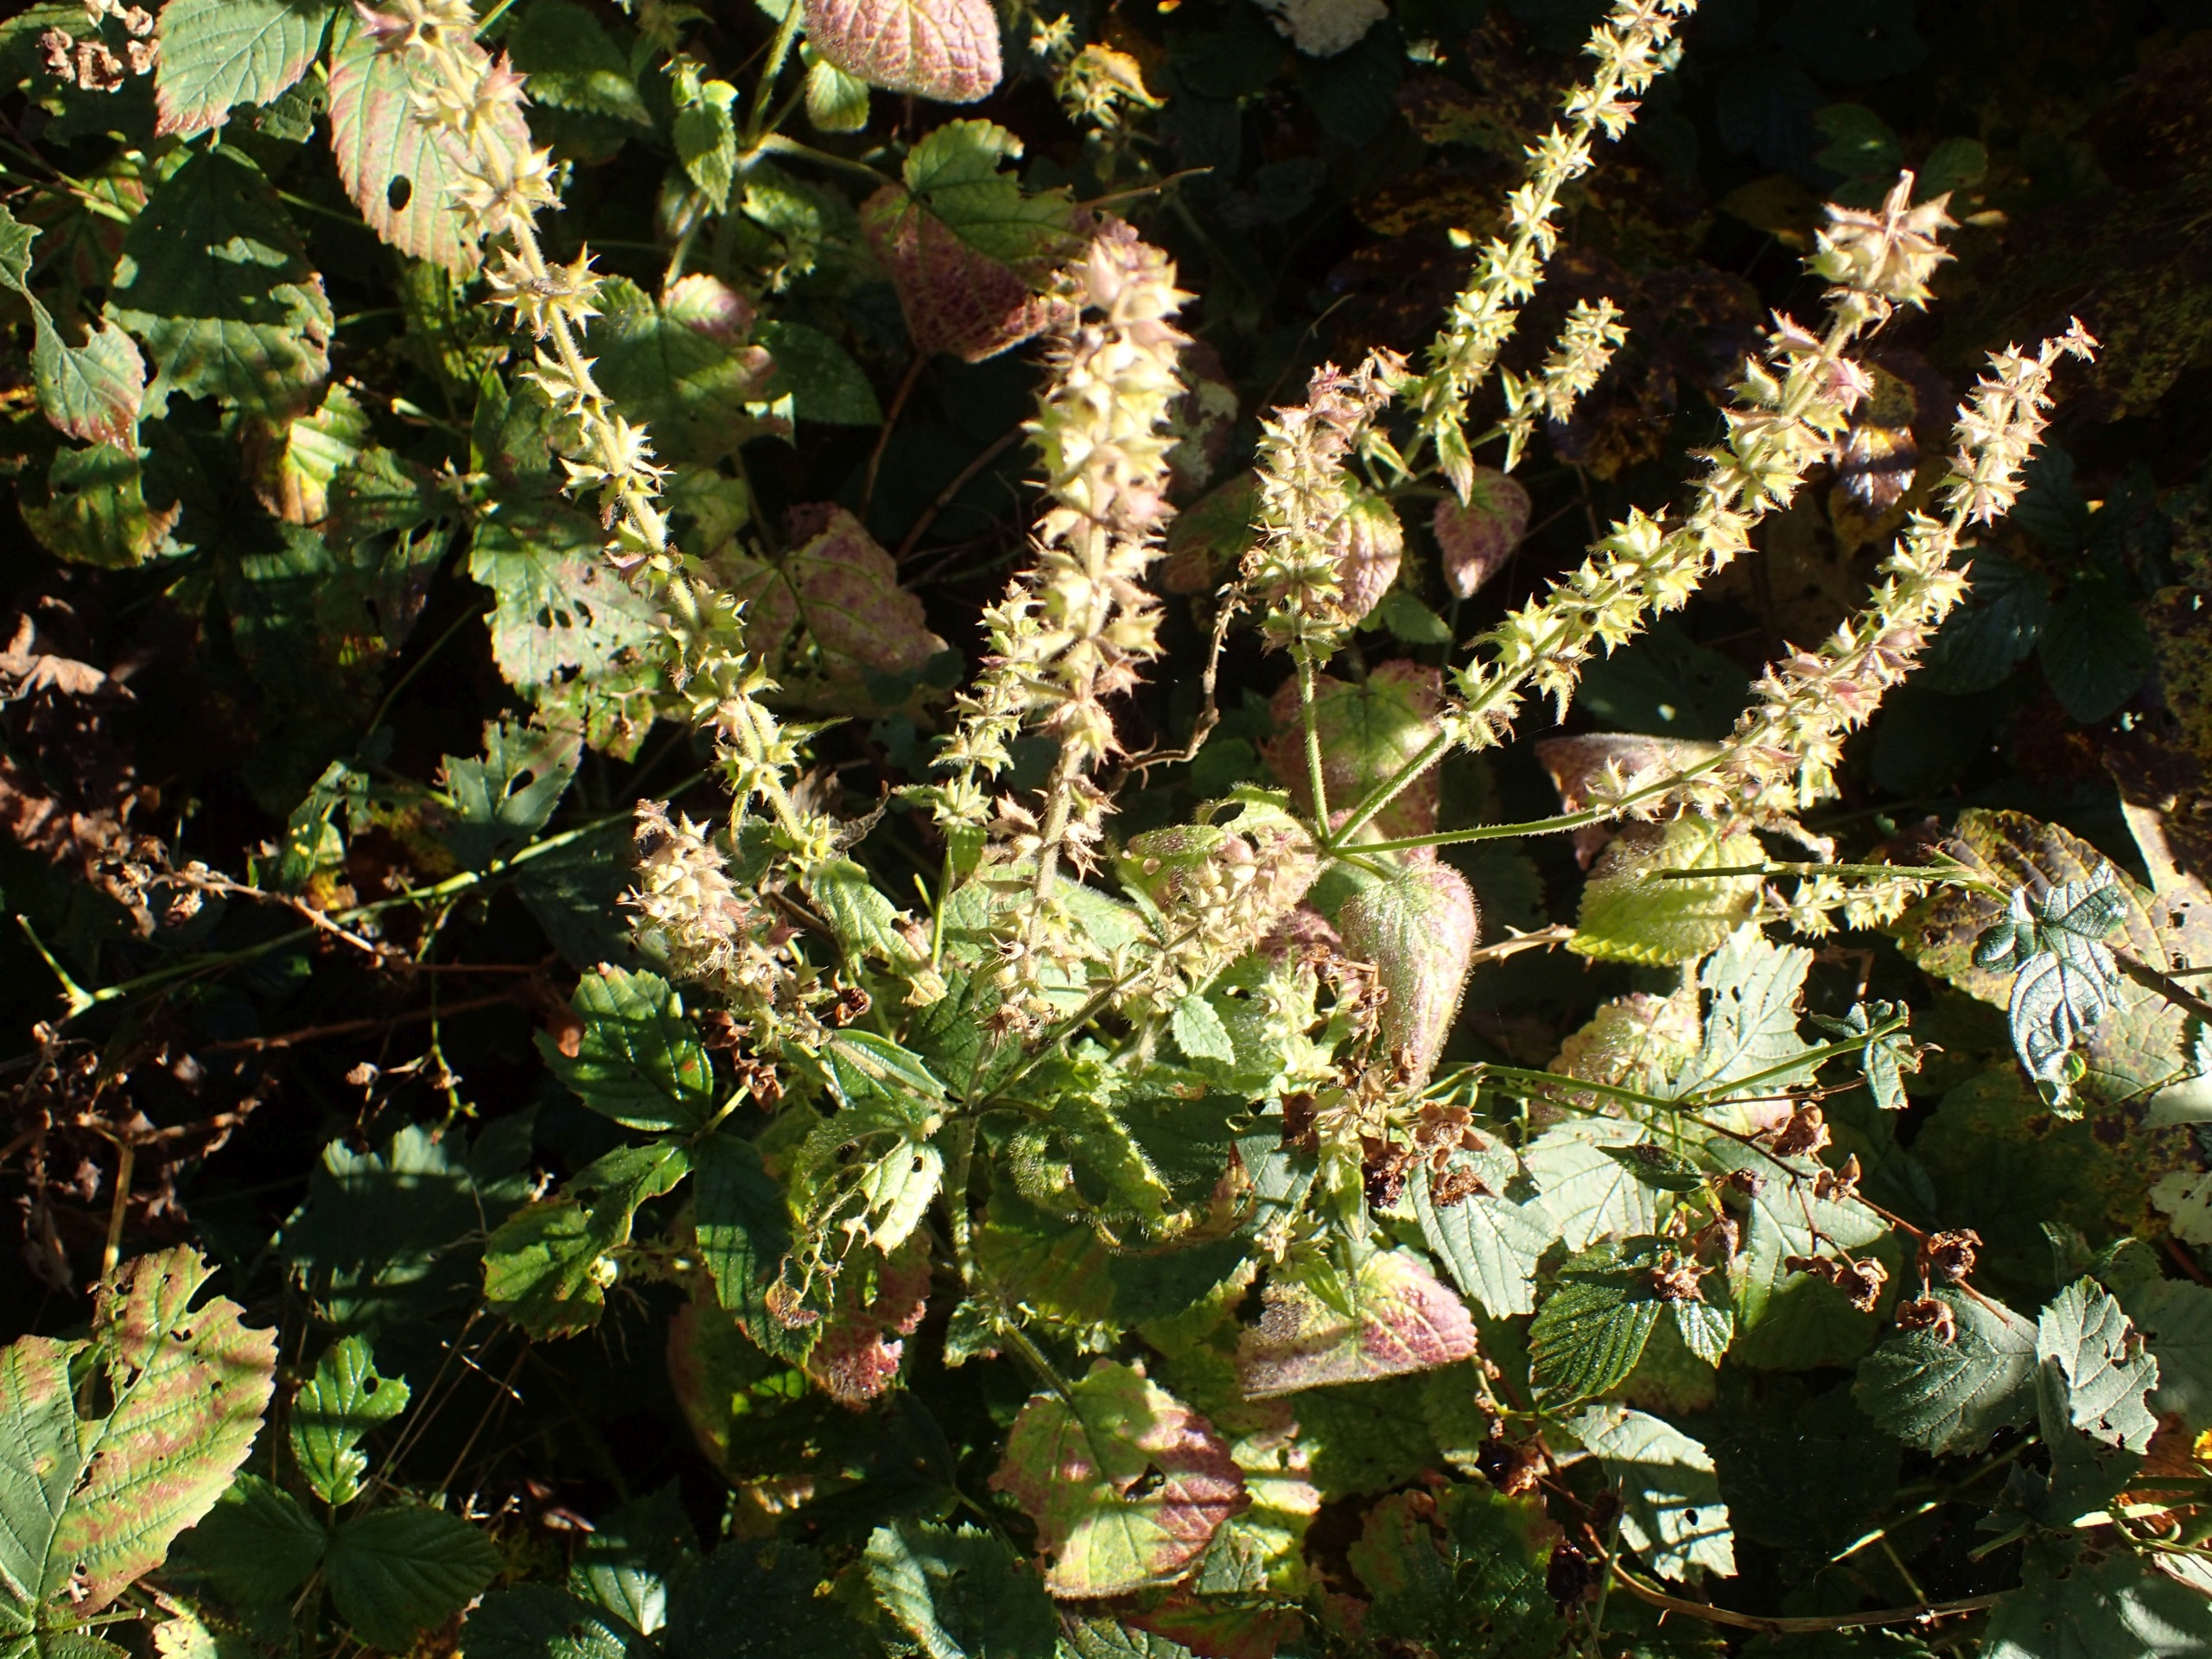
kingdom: Plantae
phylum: Tracheophyta
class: Magnoliopsida
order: Lamiales
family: Lamiaceae
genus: Stachys
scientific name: Stachys sylvatica
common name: Skov-galtetand
